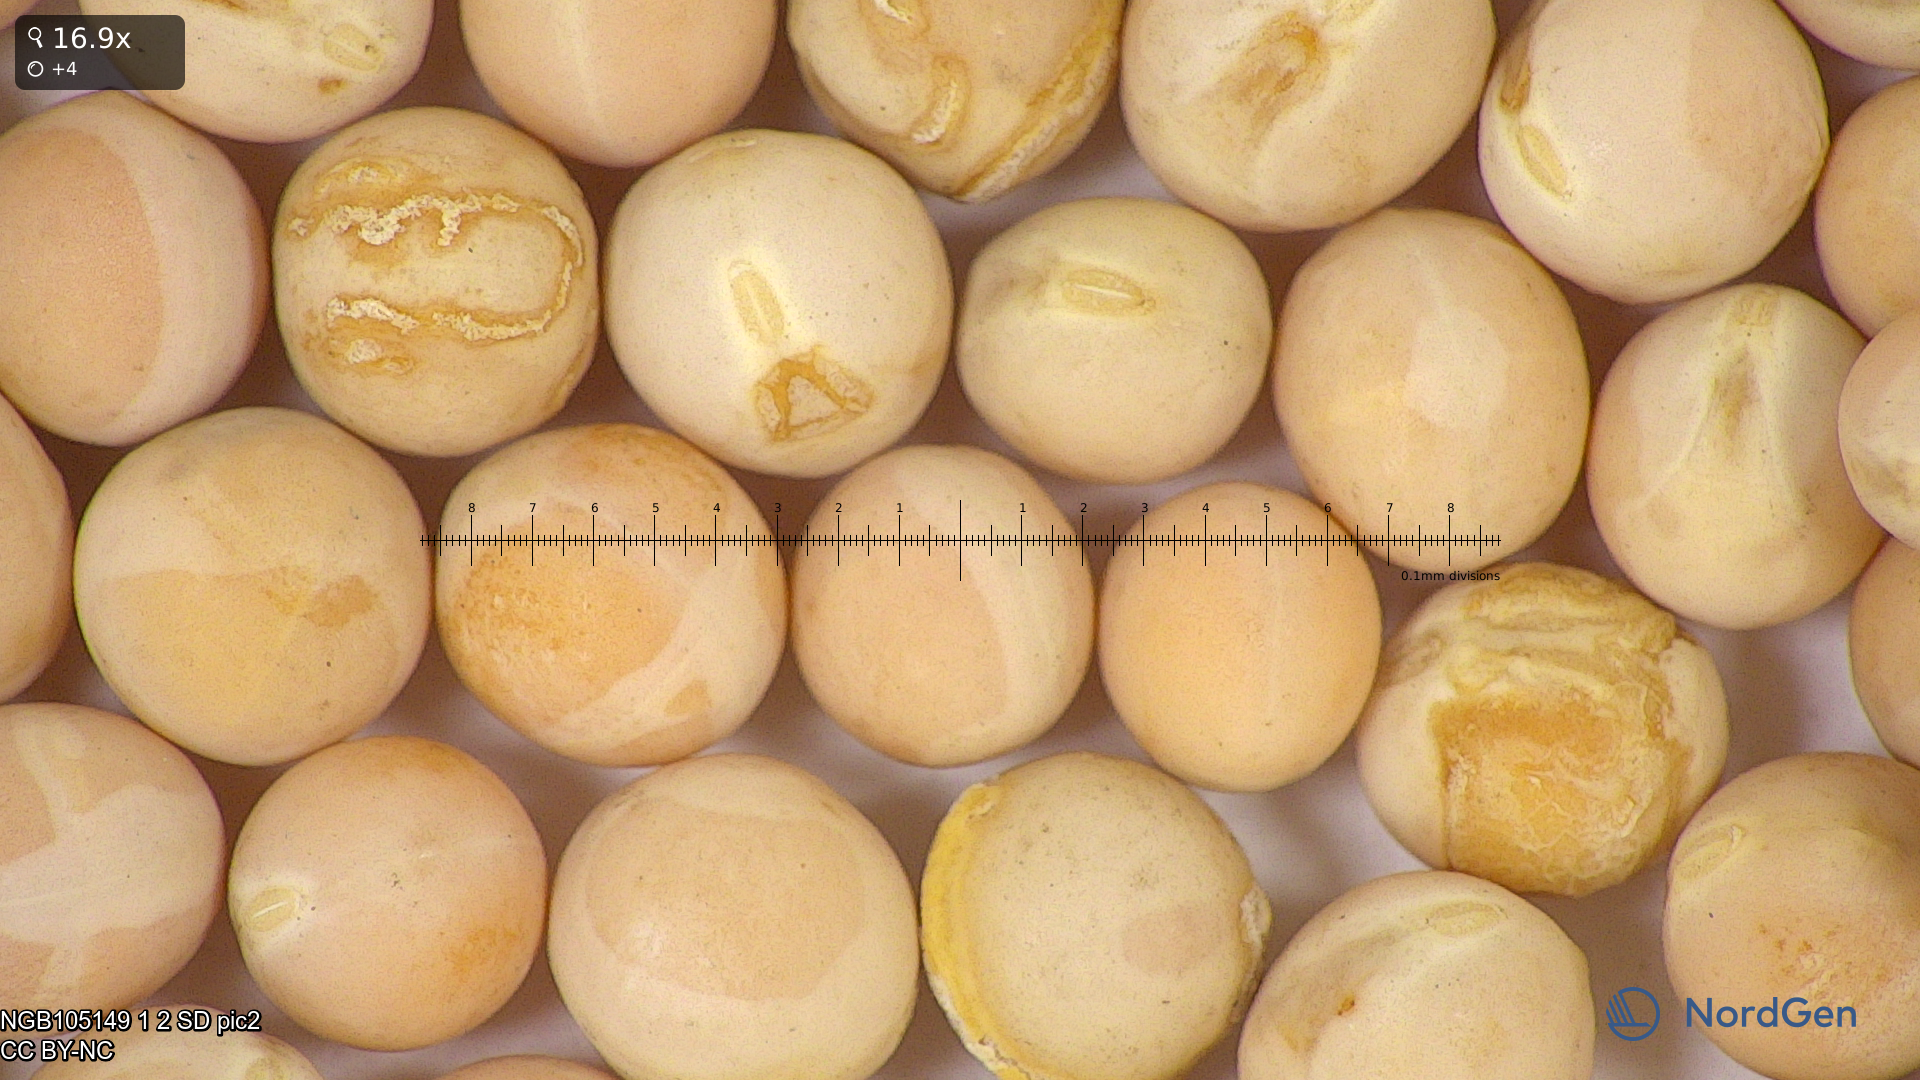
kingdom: Plantae
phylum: Tracheophyta
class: Magnoliopsida
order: Fabales
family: Fabaceae
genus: Lathyrus
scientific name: Lathyrus oleraceus
